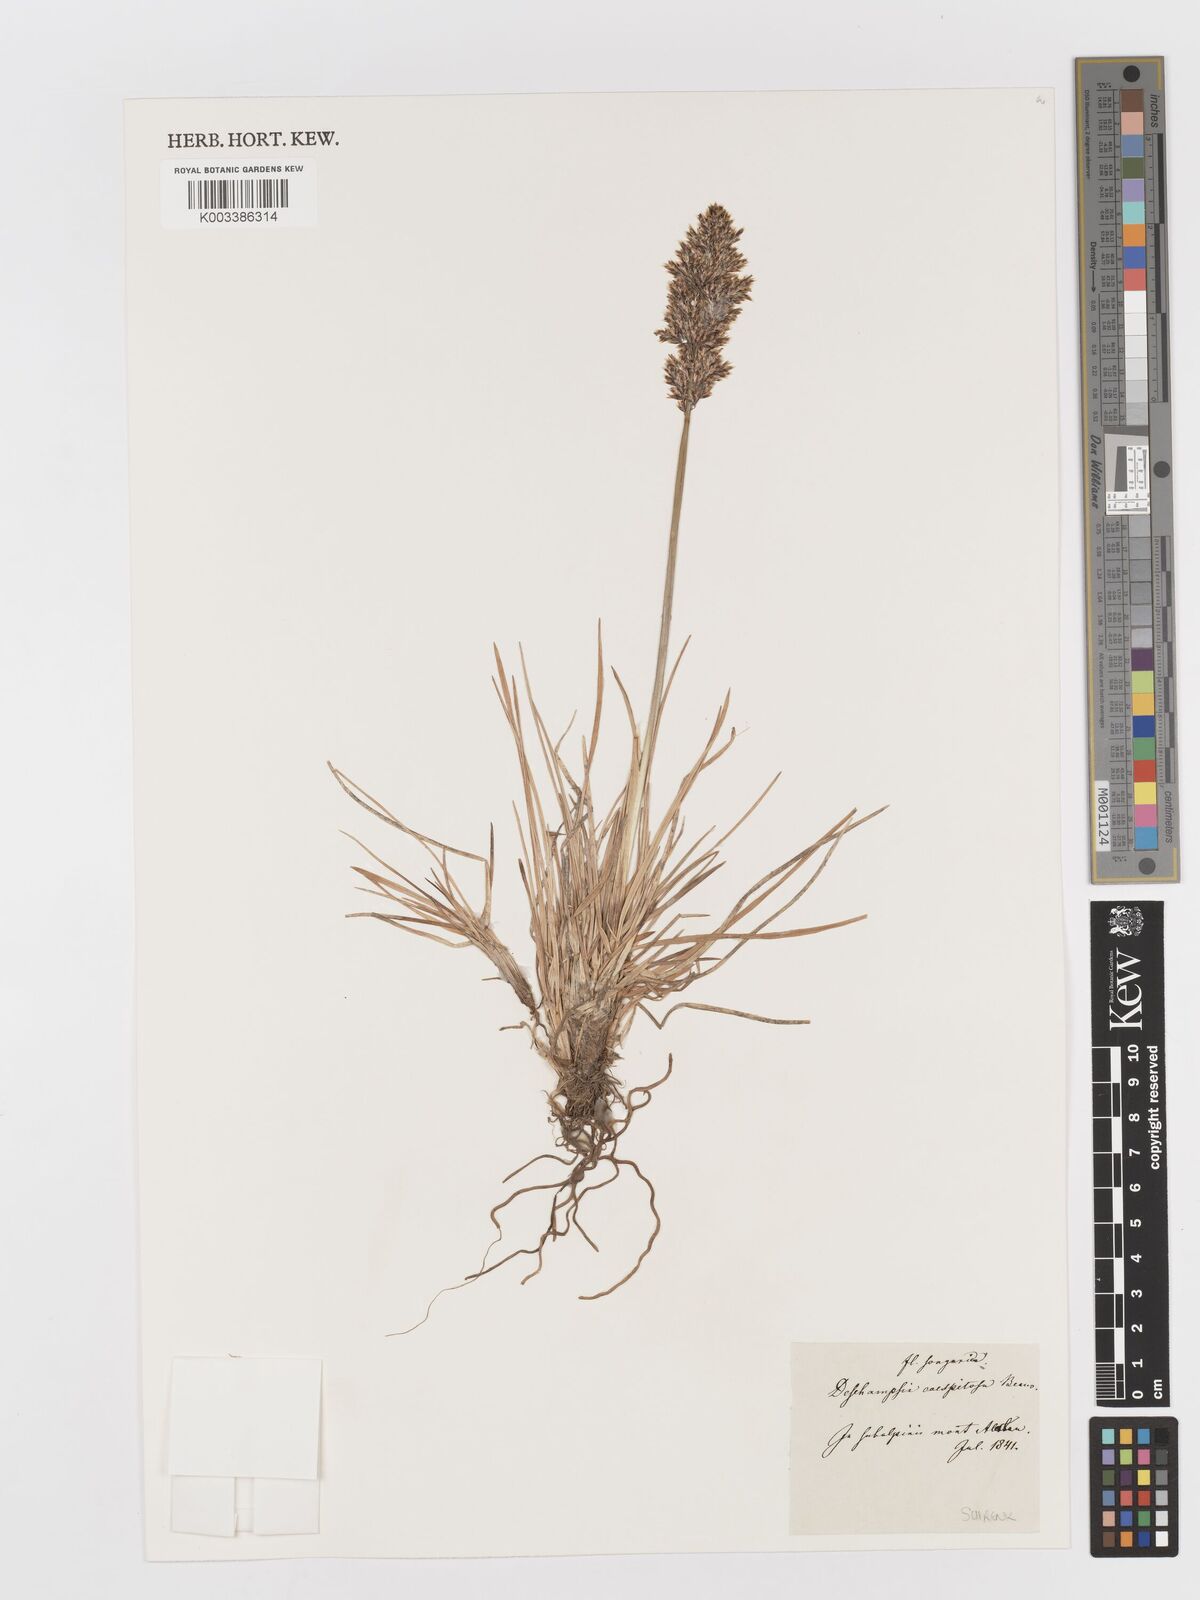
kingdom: Plantae
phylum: Tracheophyta
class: Liliopsida
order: Poales
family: Poaceae
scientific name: Poaceae
